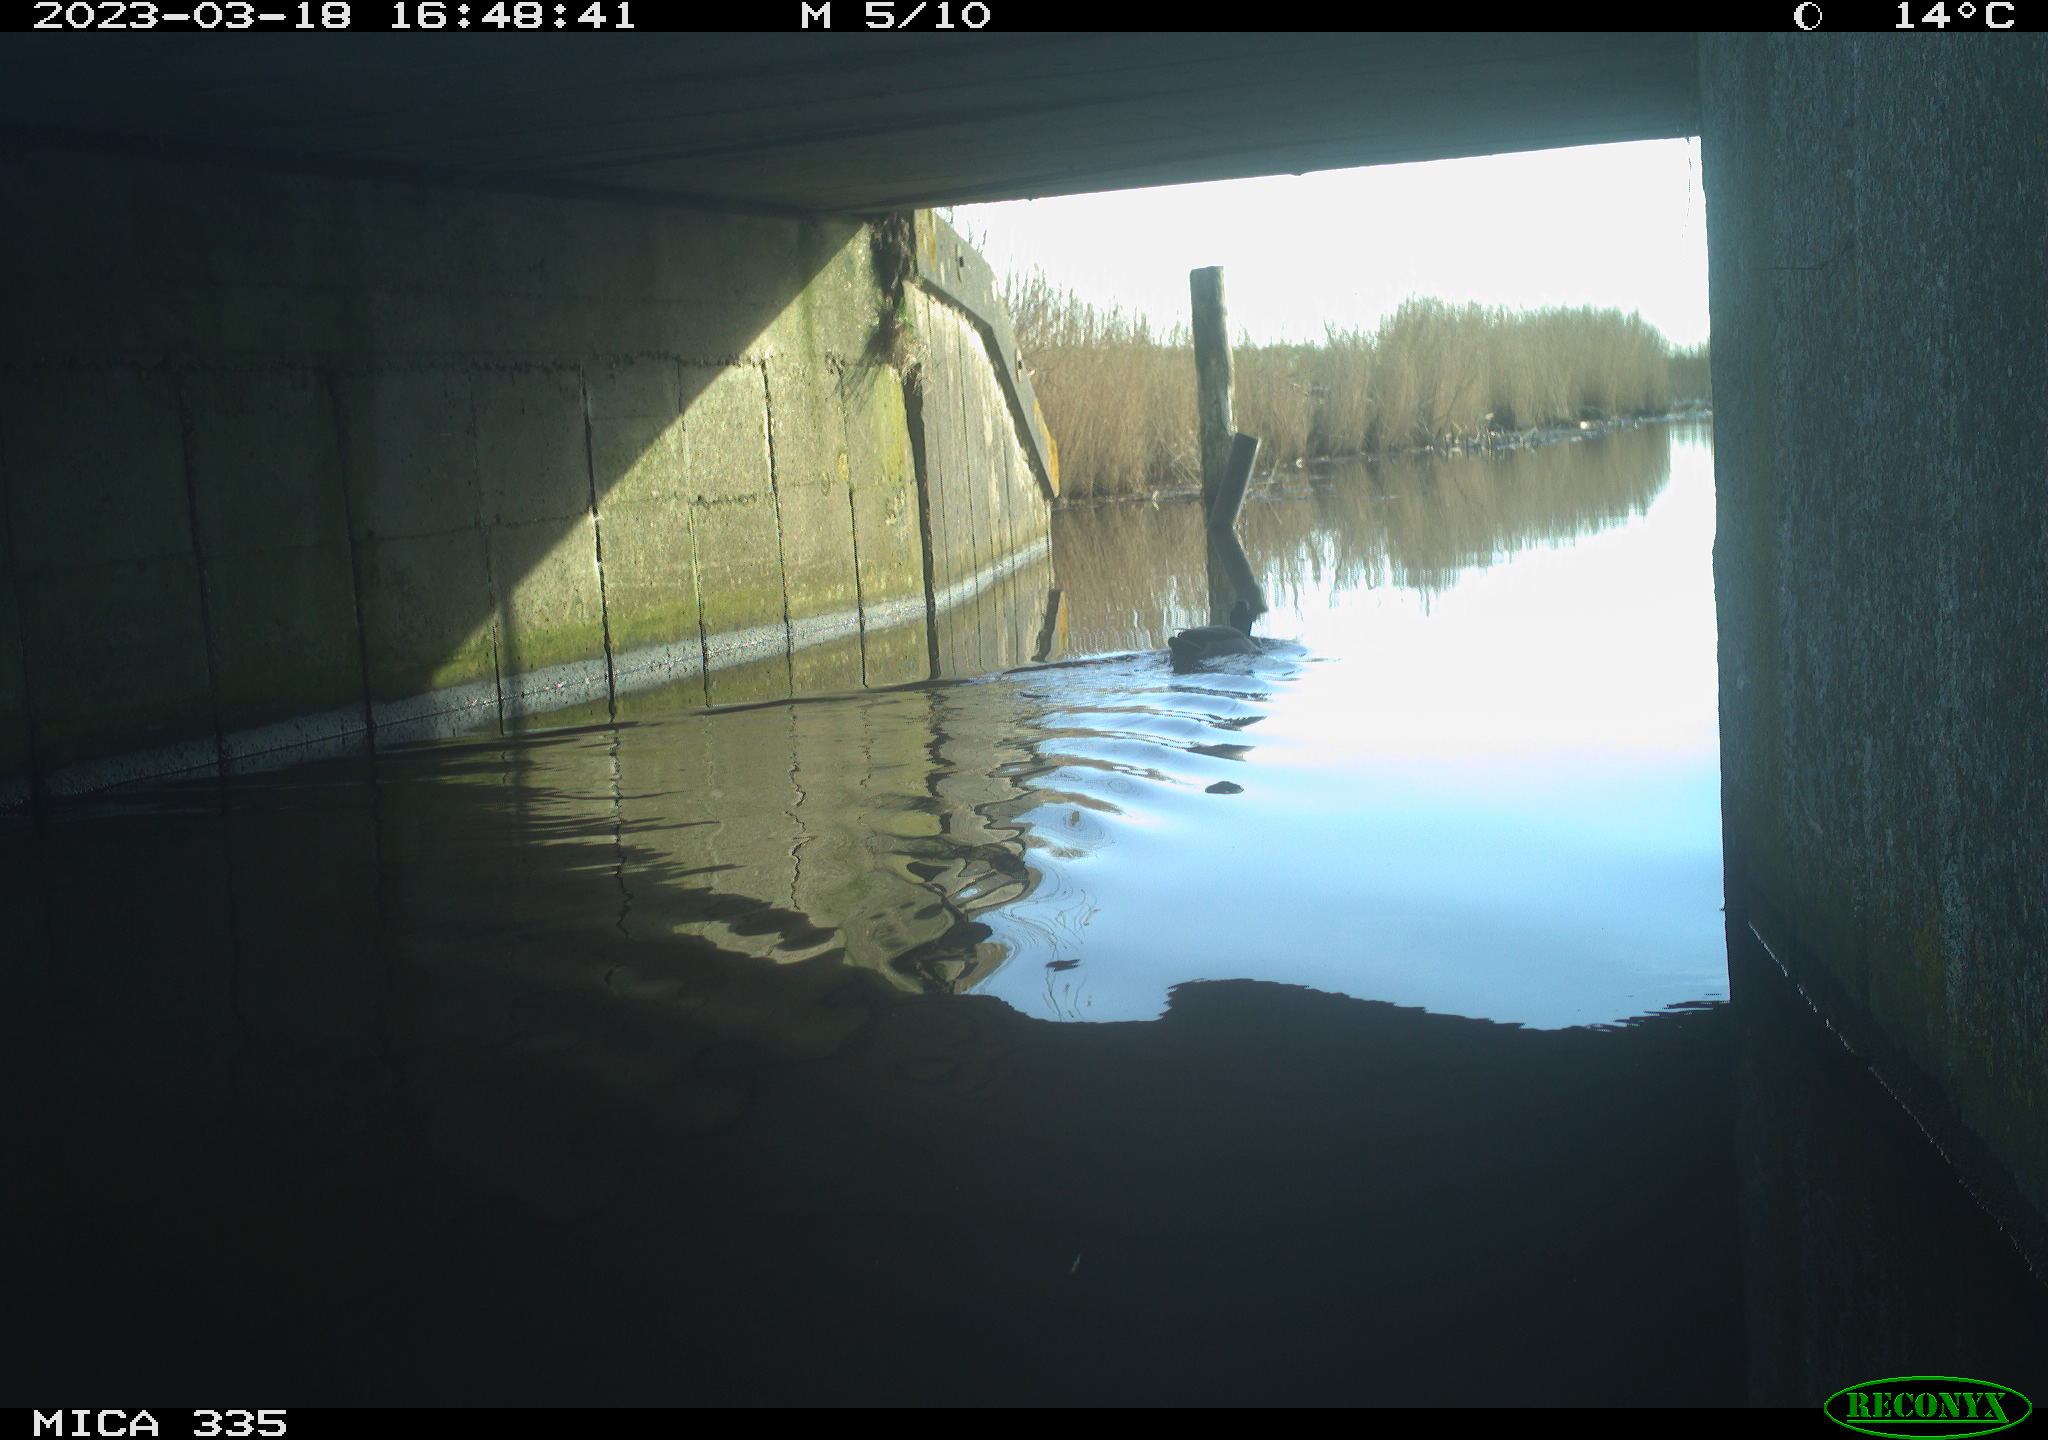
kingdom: Animalia
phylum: Chordata
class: Aves
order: Anseriformes
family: Anatidae
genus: Anas
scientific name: Anas
